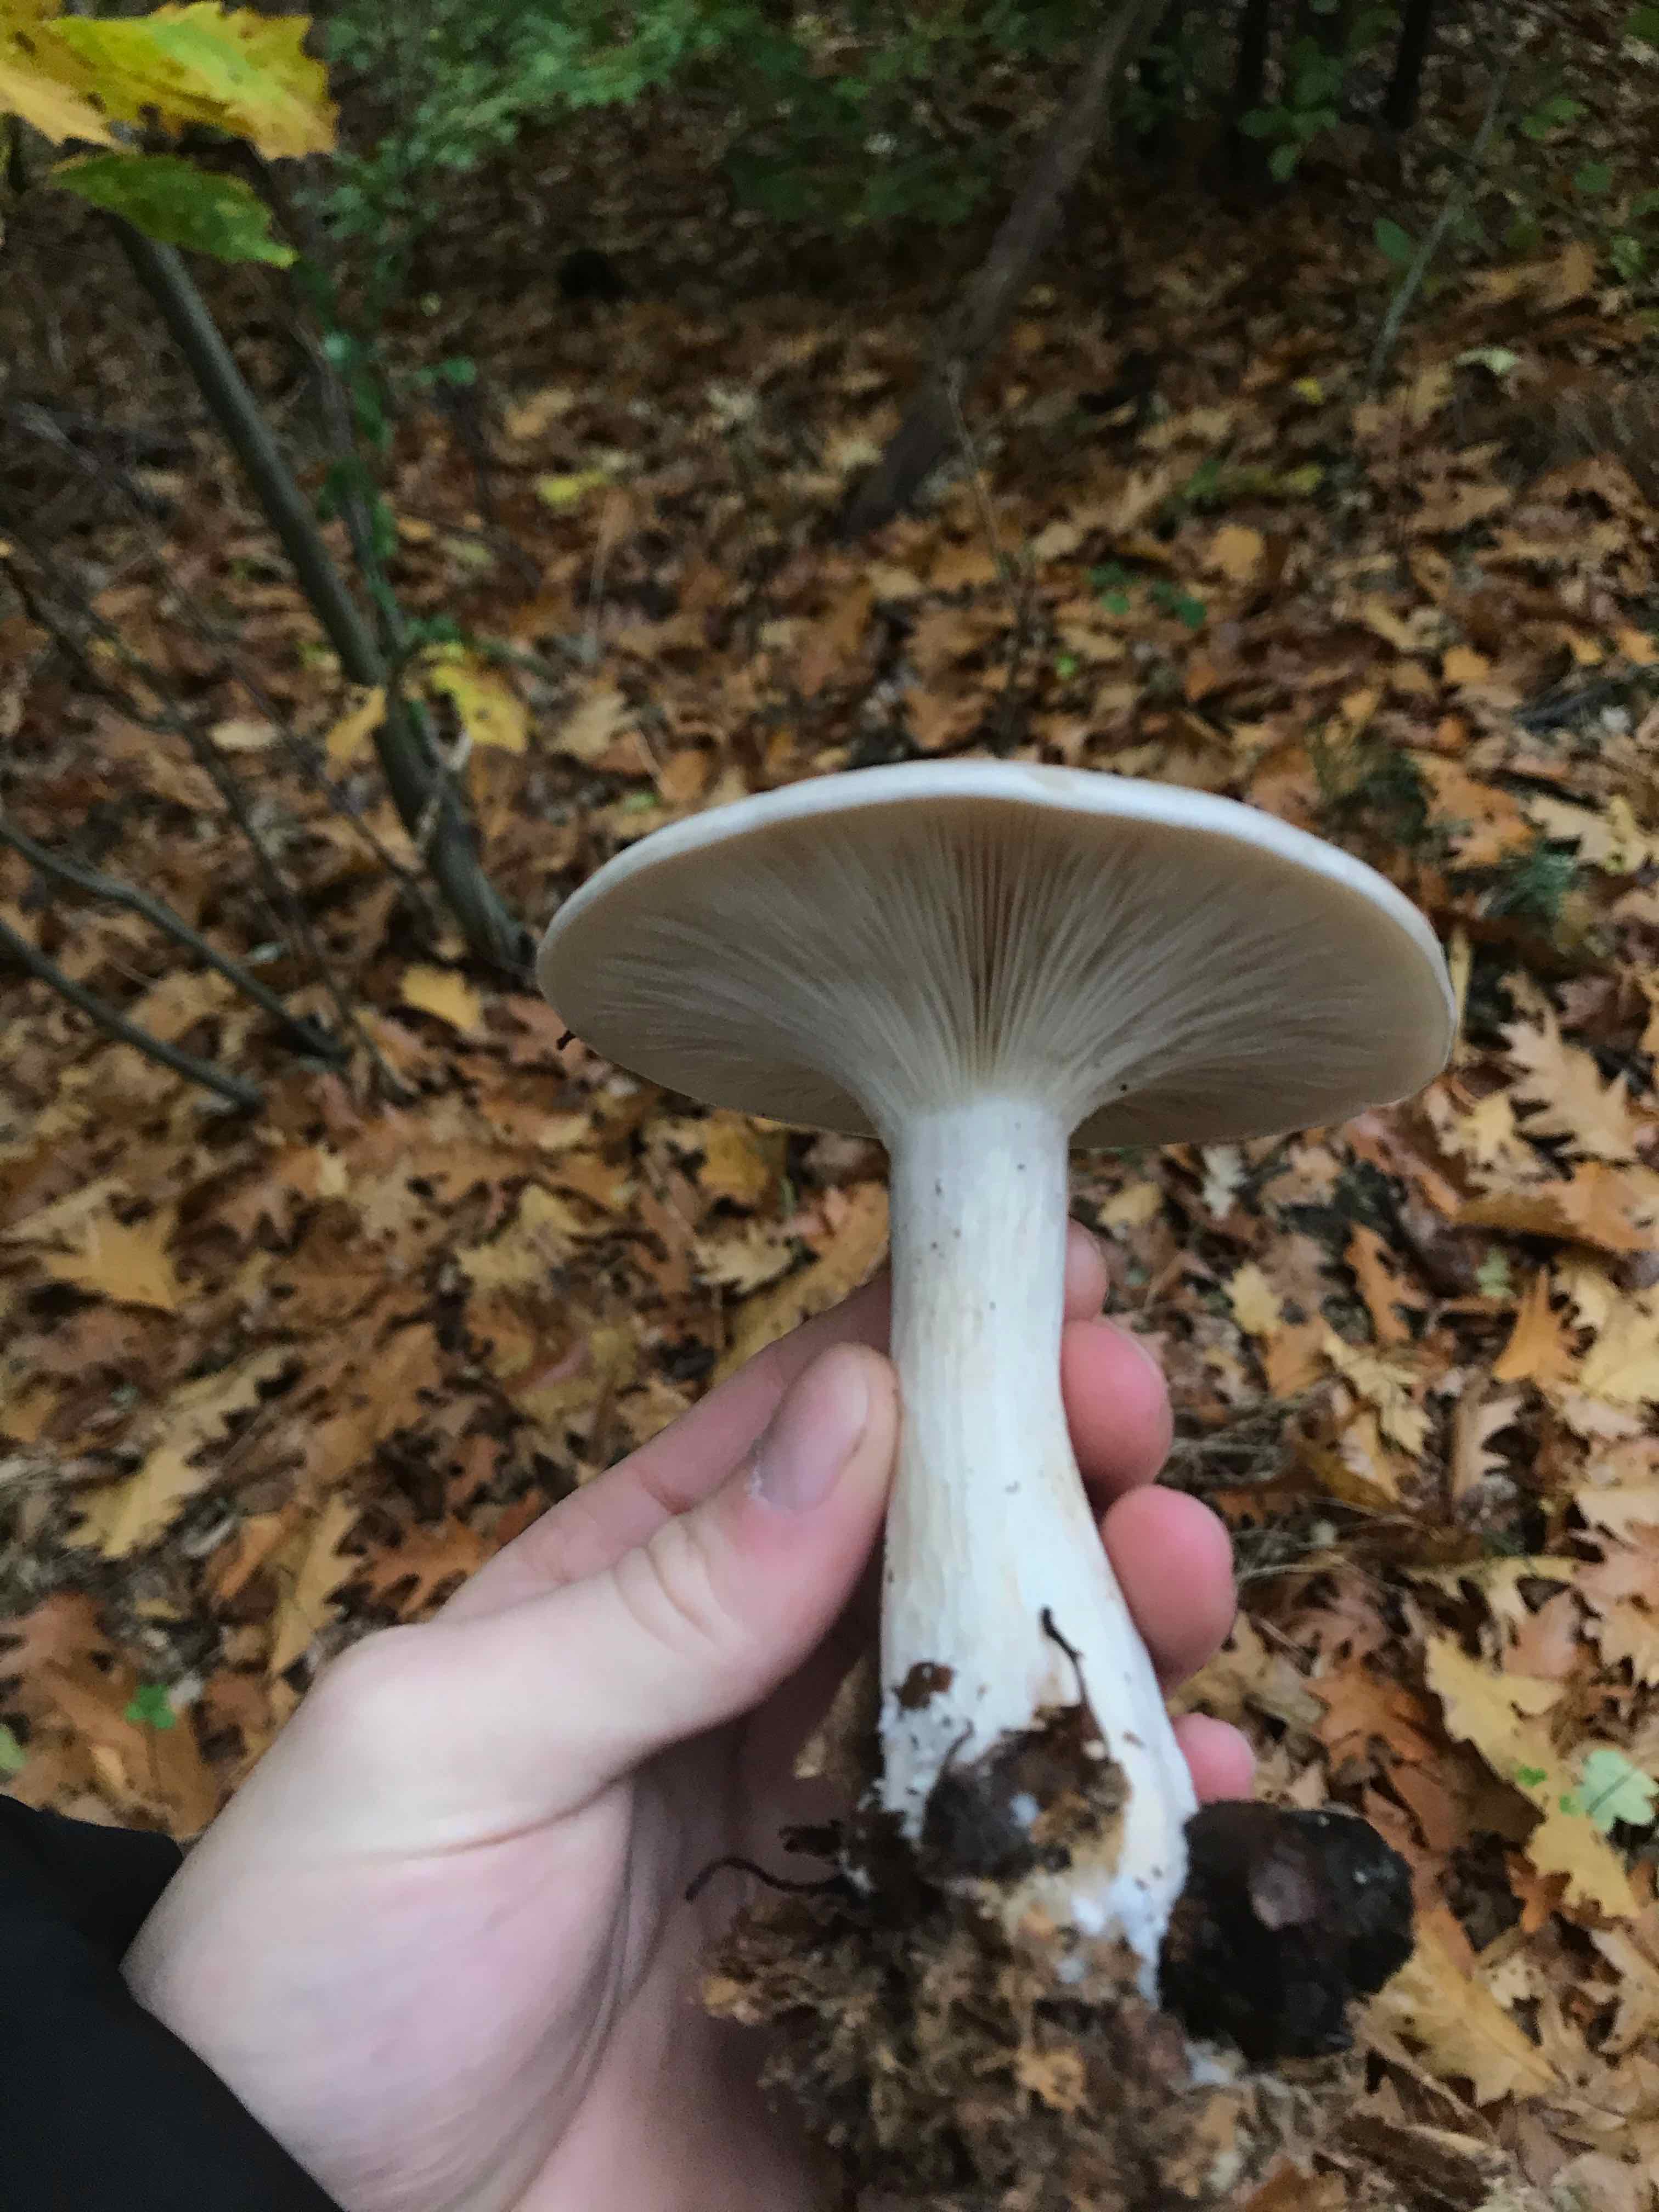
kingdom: Fungi
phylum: Basidiomycota
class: Agaricomycetes
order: Agaricales
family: Tricholomataceae
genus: Clitocybe
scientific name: Clitocybe nebularis
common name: tåge-tragthat
